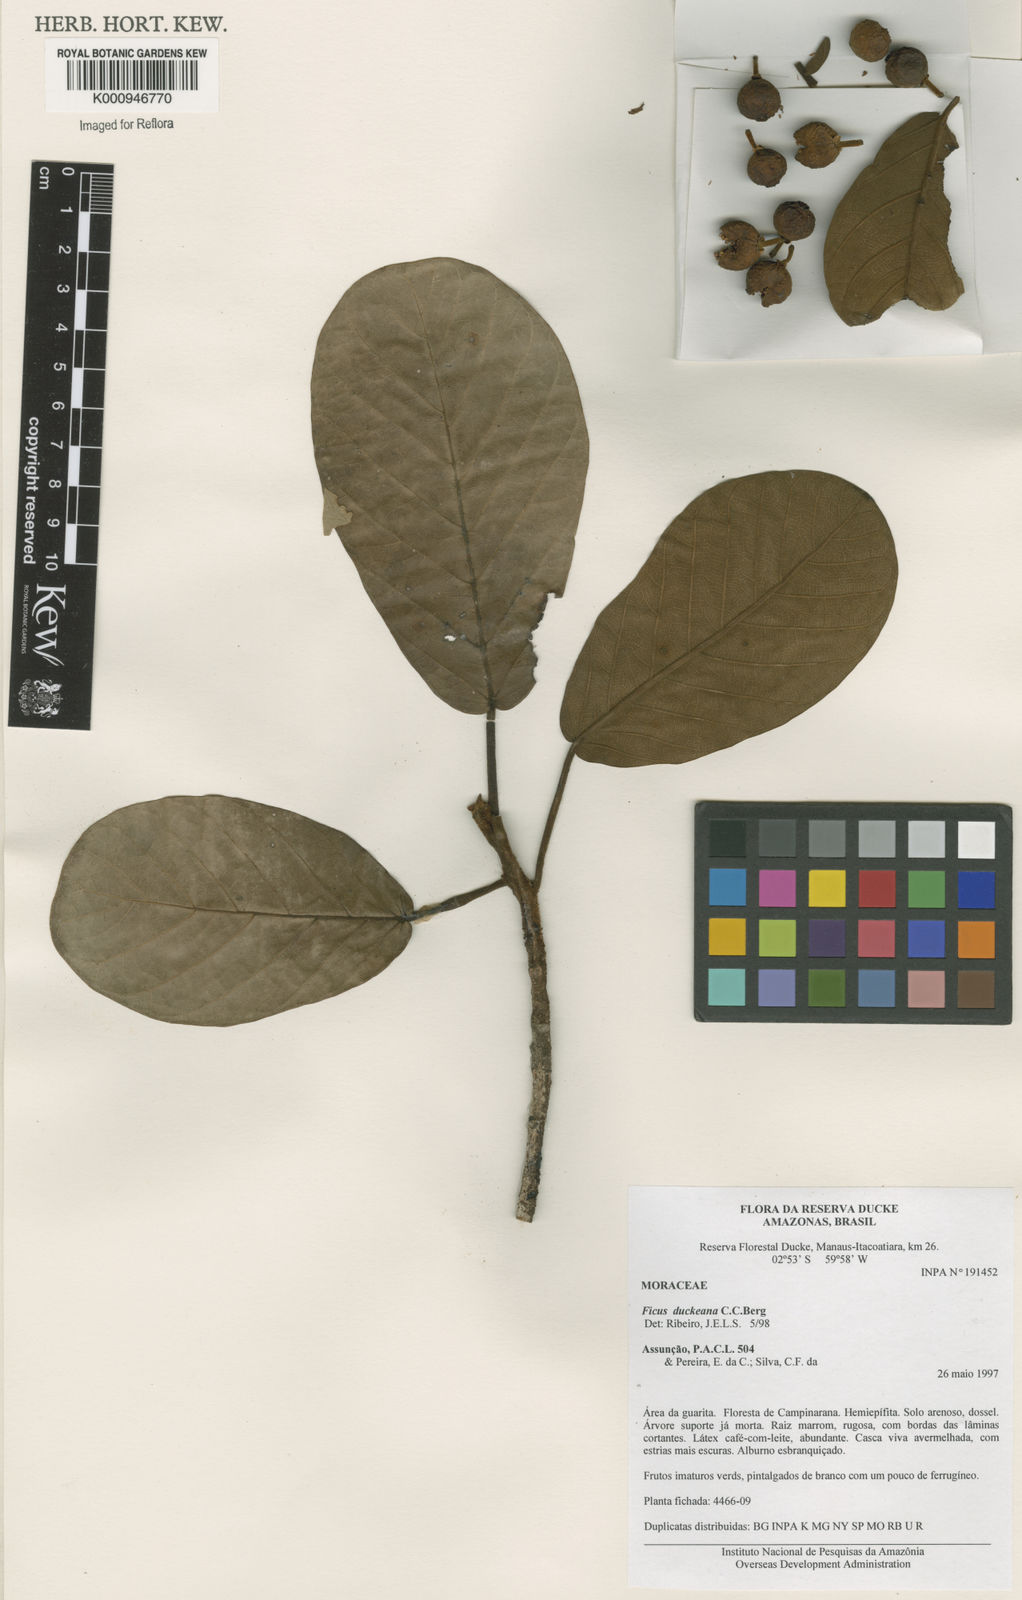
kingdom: Plantae
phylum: Tracheophyta
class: Magnoliopsida
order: Rosales
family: Moraceae
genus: Ficus
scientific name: Ficus duckeana
